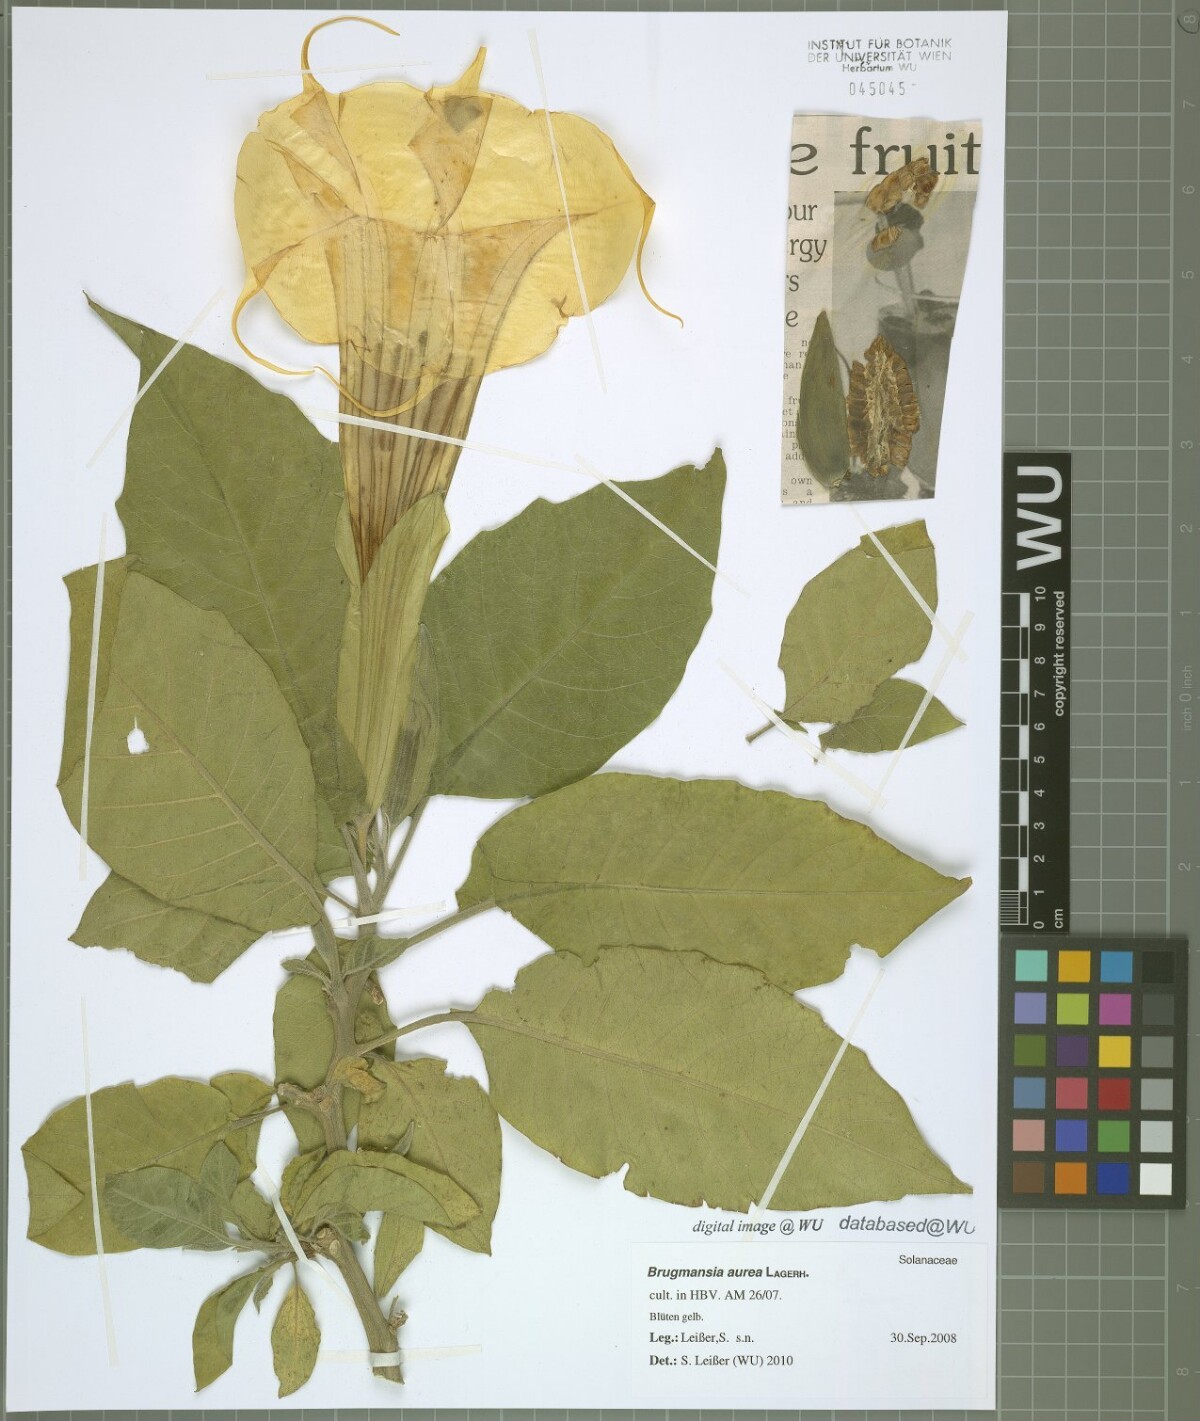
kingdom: Plantae
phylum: Tracheophyta
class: Magnoliopsida
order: Solanales
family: Solanaceae
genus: Brugmansia
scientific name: Brugmansia aurea
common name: Yellow angel's-trumpet
